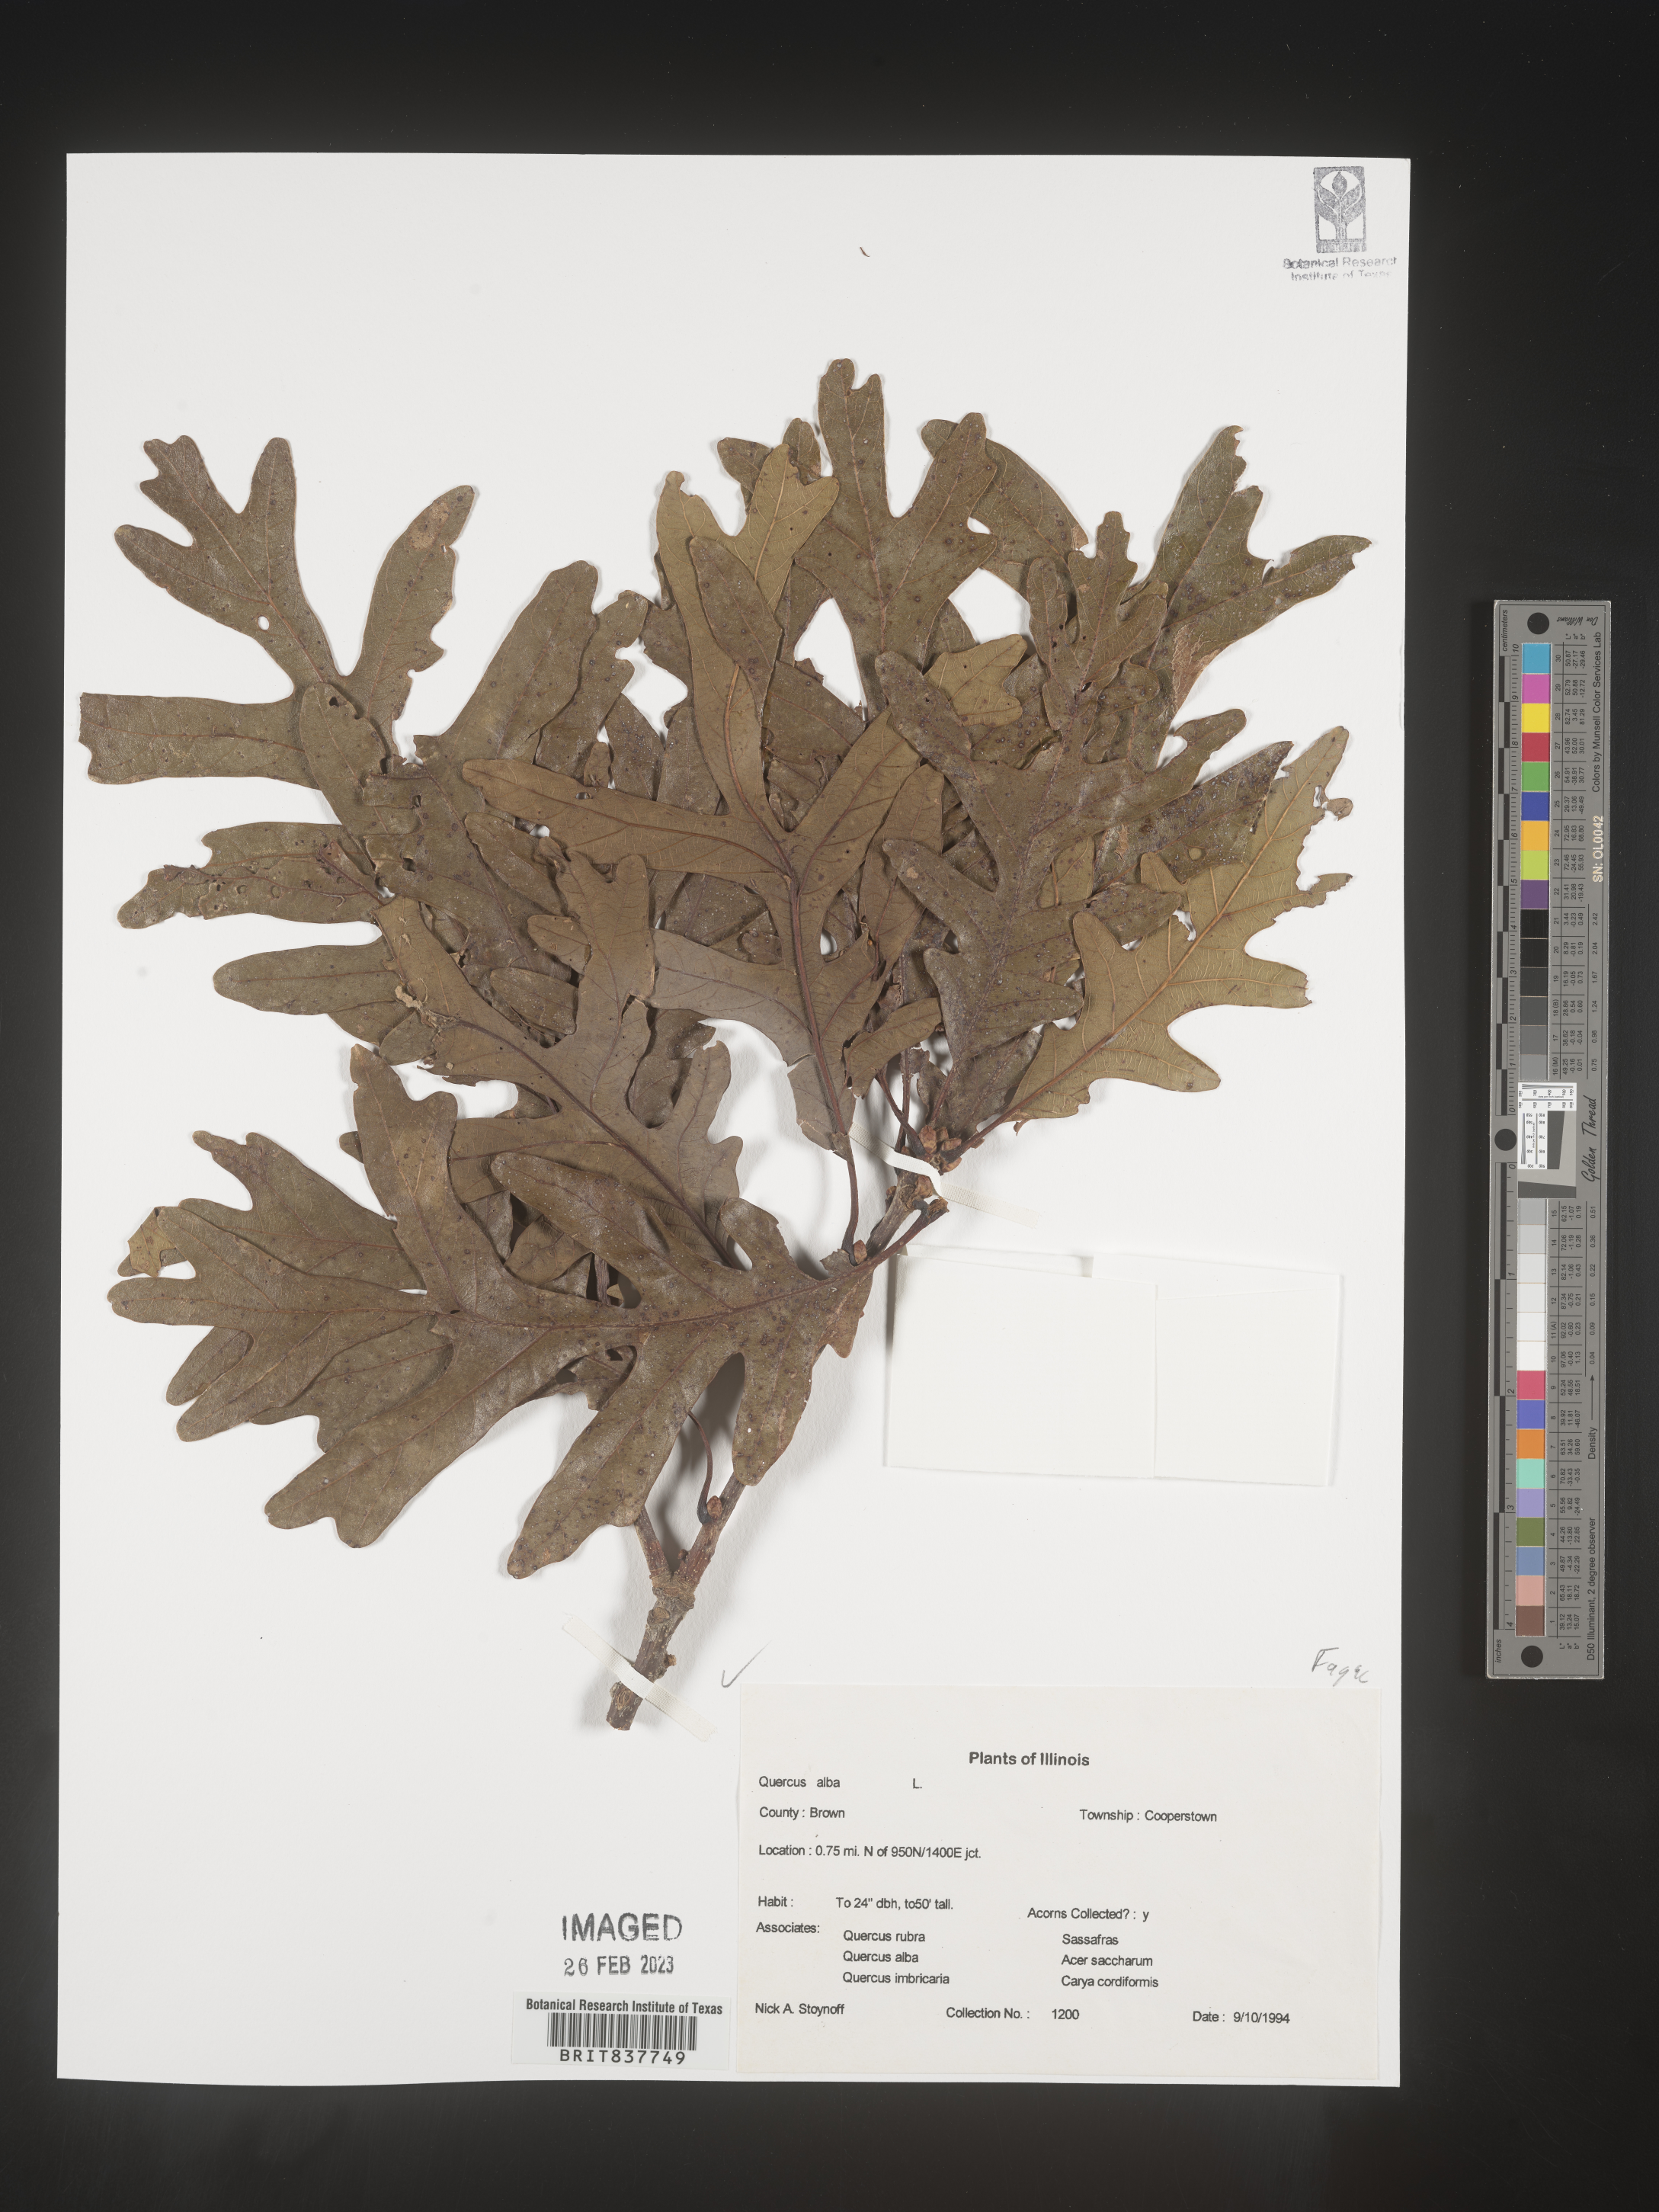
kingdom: Plantae
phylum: Tracheophyta
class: Magnoliopsida
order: Fagales
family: Fagaceae
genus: Quercus
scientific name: Quercus alba
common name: White oak
